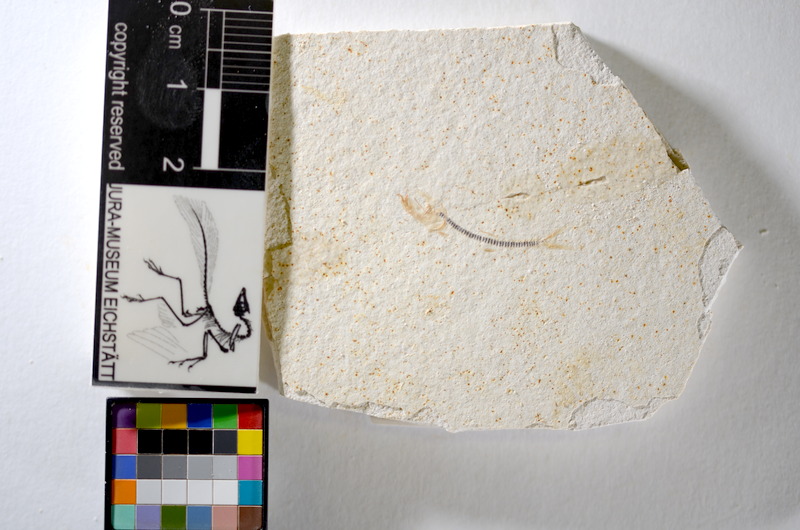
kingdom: Animalia
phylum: Chordata
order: Salmoniformes
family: Orthogonikleithridae
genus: Orthogonikleithrus
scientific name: Orthogonikleithrus hoelli
